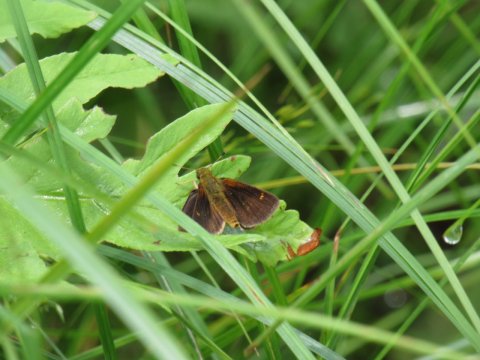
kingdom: Animalia
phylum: Arthropoda
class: Insecta
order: Lepidoptera
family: Hesperiidae
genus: Poanes
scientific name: Poanes massasoit
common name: Mulberry Wing
